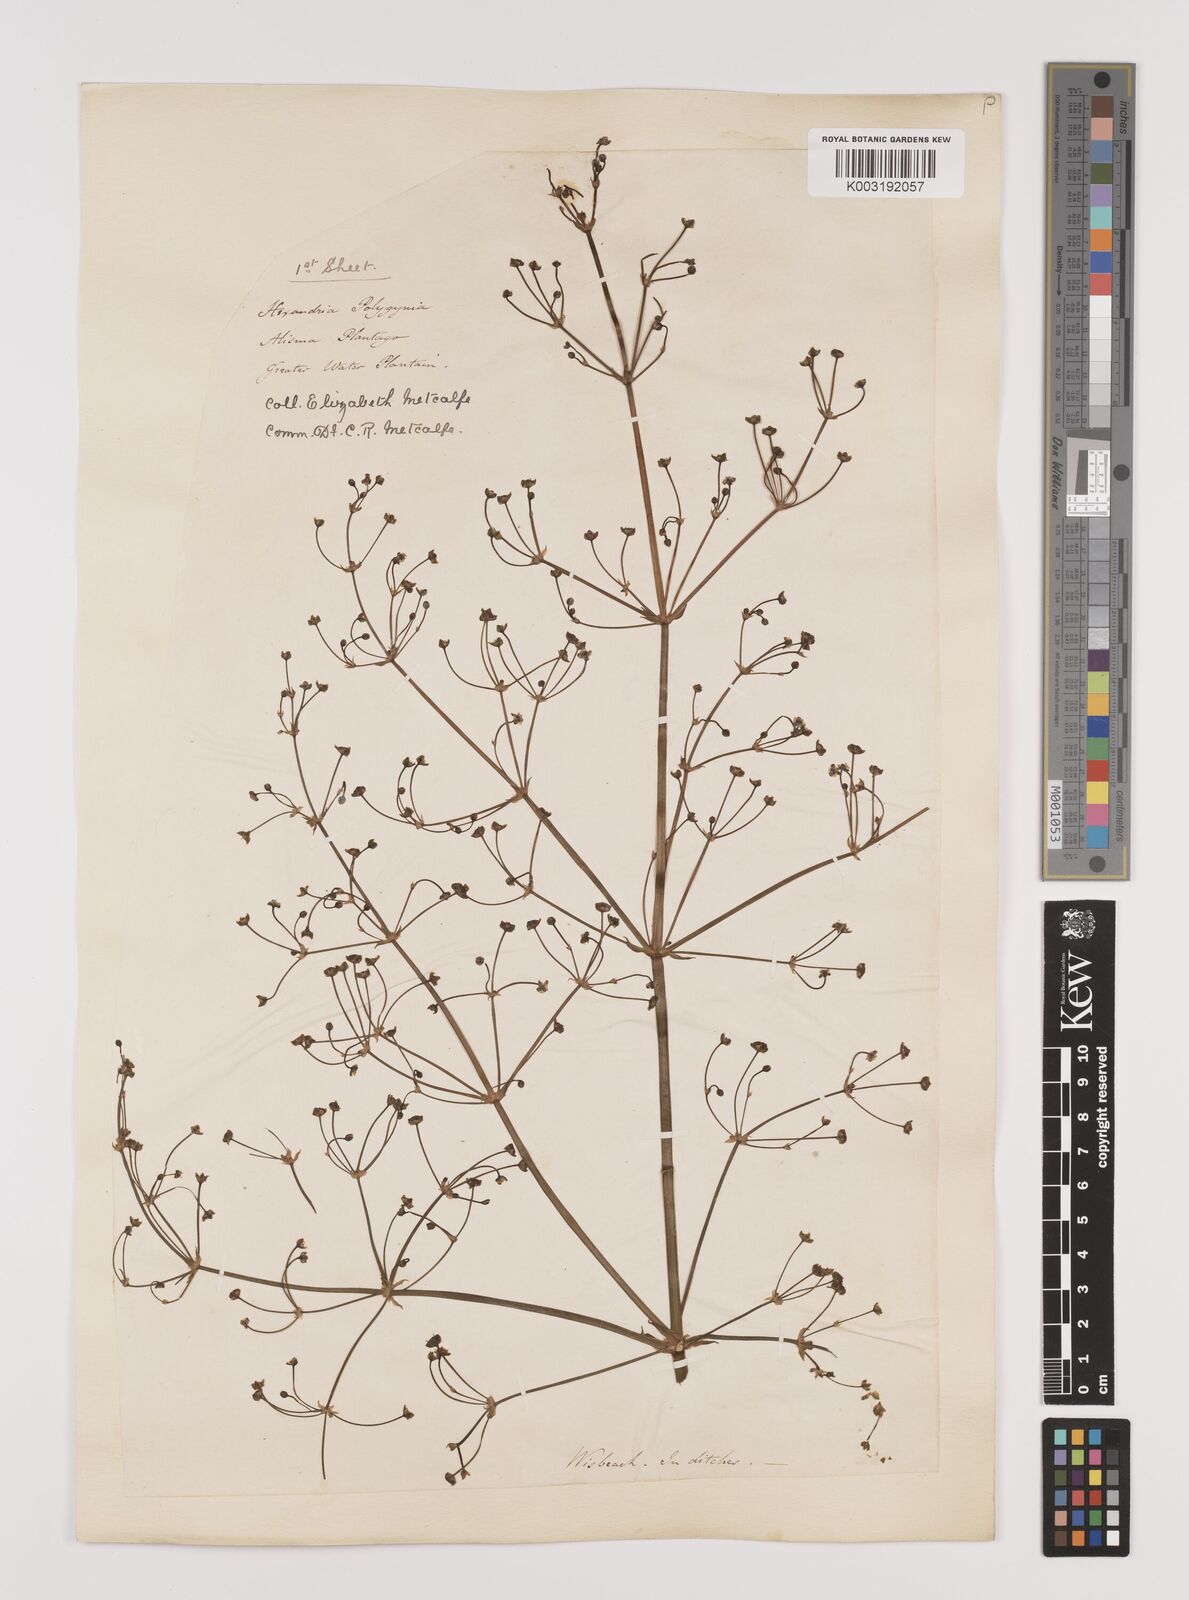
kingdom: Plantae
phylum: Tracheophyta
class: Liliopsida
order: Alismatales
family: Alismataceae
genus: Alisma
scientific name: Alisma plantago-aquatica
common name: Water-plantain
